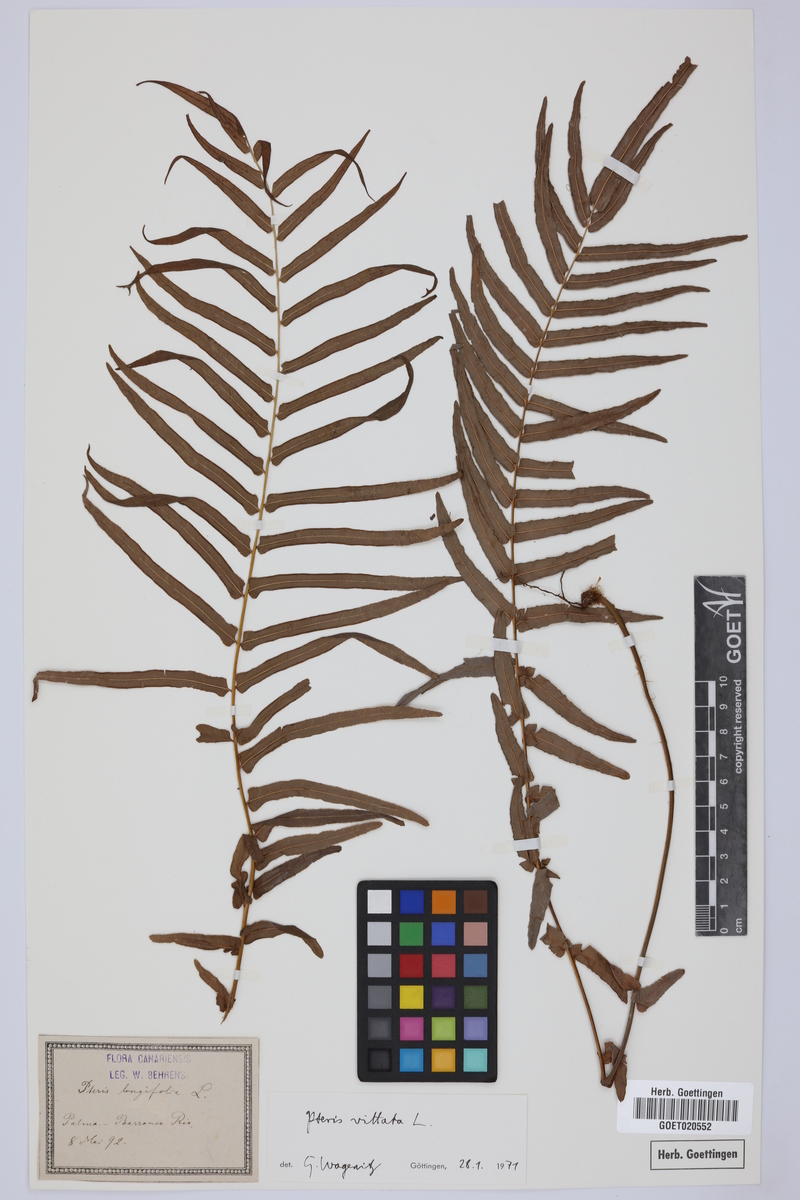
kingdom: Plantae
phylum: Tracheophyta
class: Polypodiopsida
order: Polypodiales
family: Pteridaceae
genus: Pteris
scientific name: Pteris vittata
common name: Ladder brake
